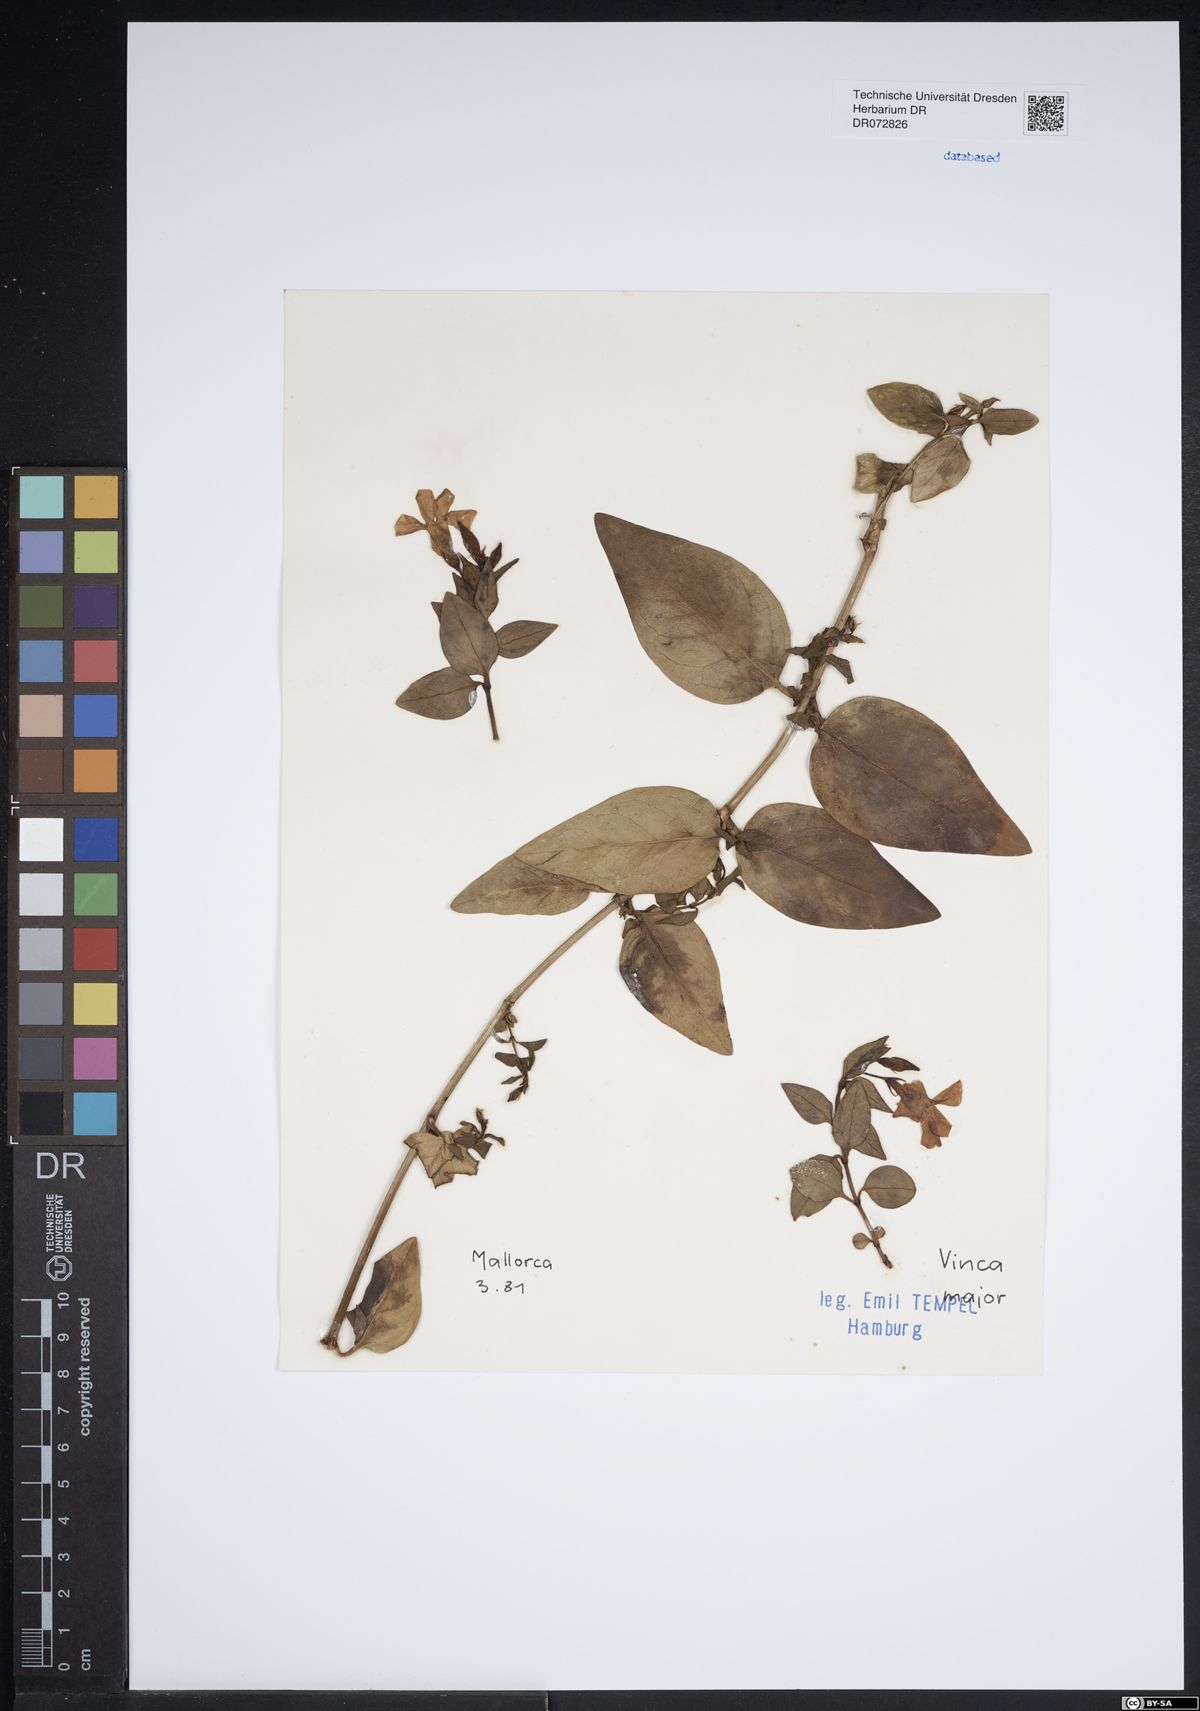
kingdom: Plantae
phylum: Tracheophyta
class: Magnoliopsida
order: Gentianales
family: Apocynaceae
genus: Vinca
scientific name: Vinca major
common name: Greater periwinkle
